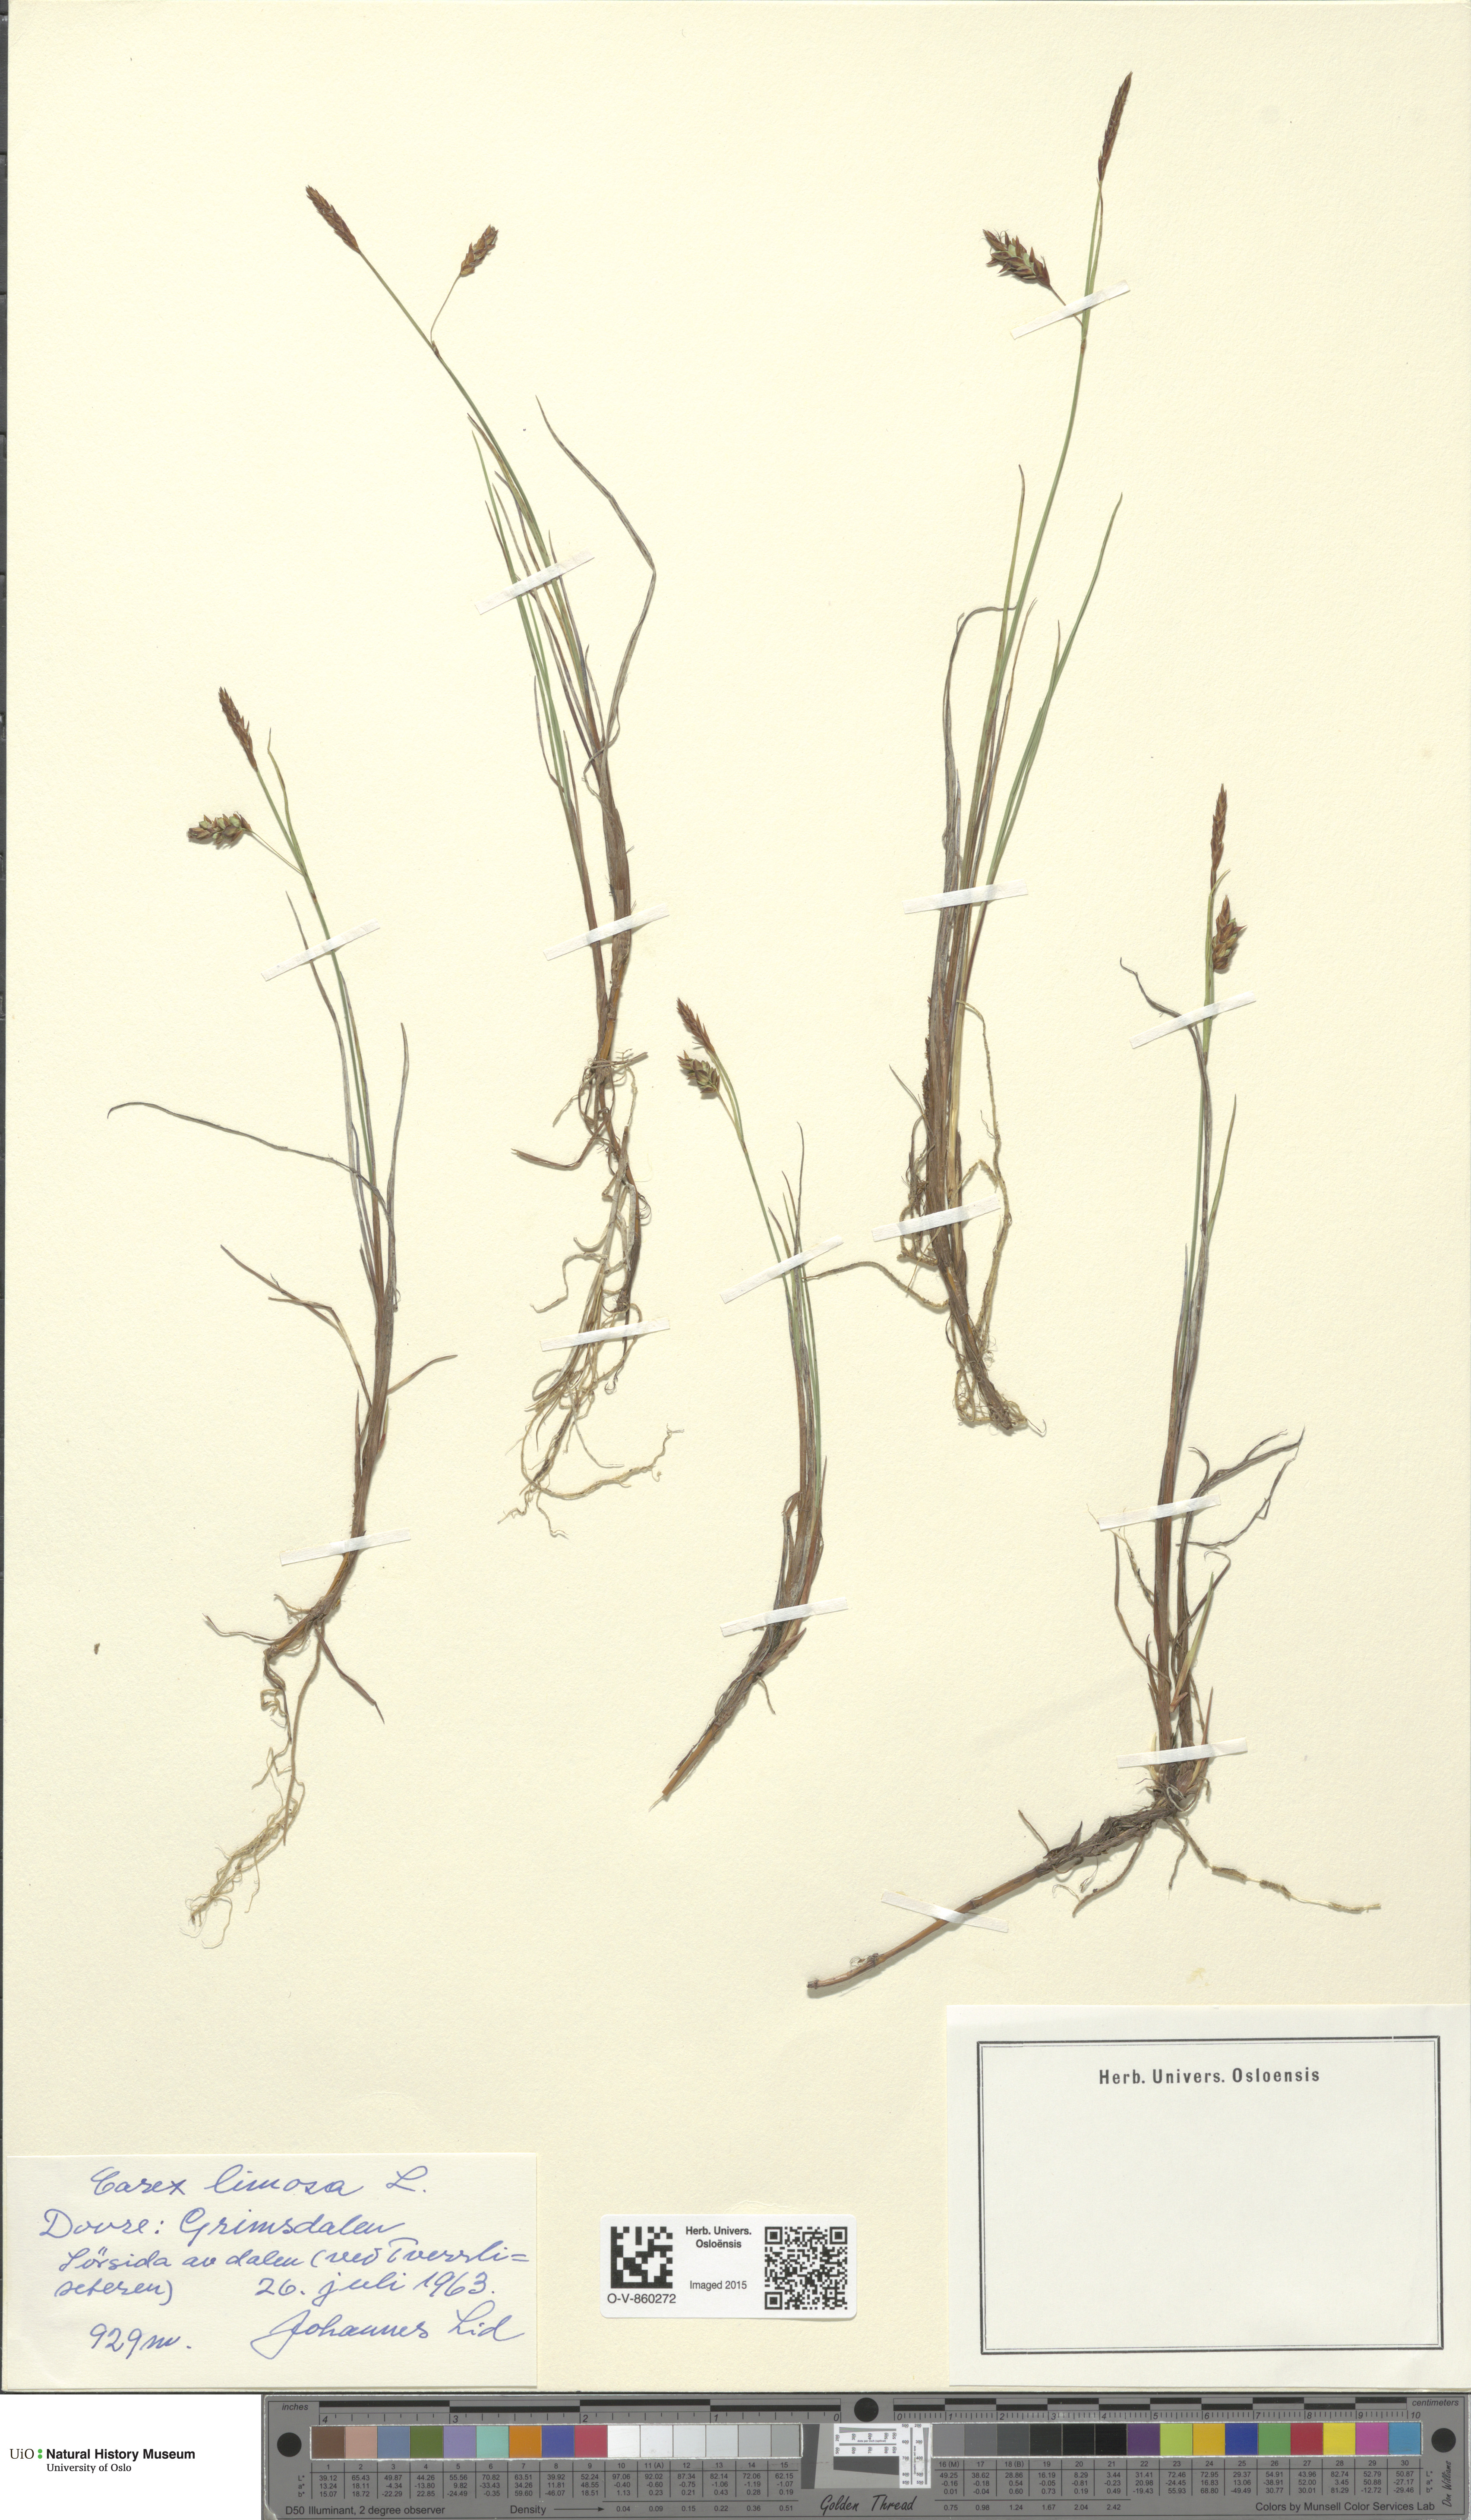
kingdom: Plantae
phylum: Tracheophyta
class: Liliopsida
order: Poales
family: Cyperaceae
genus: Carex
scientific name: Carex limosa
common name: Bog sedge
